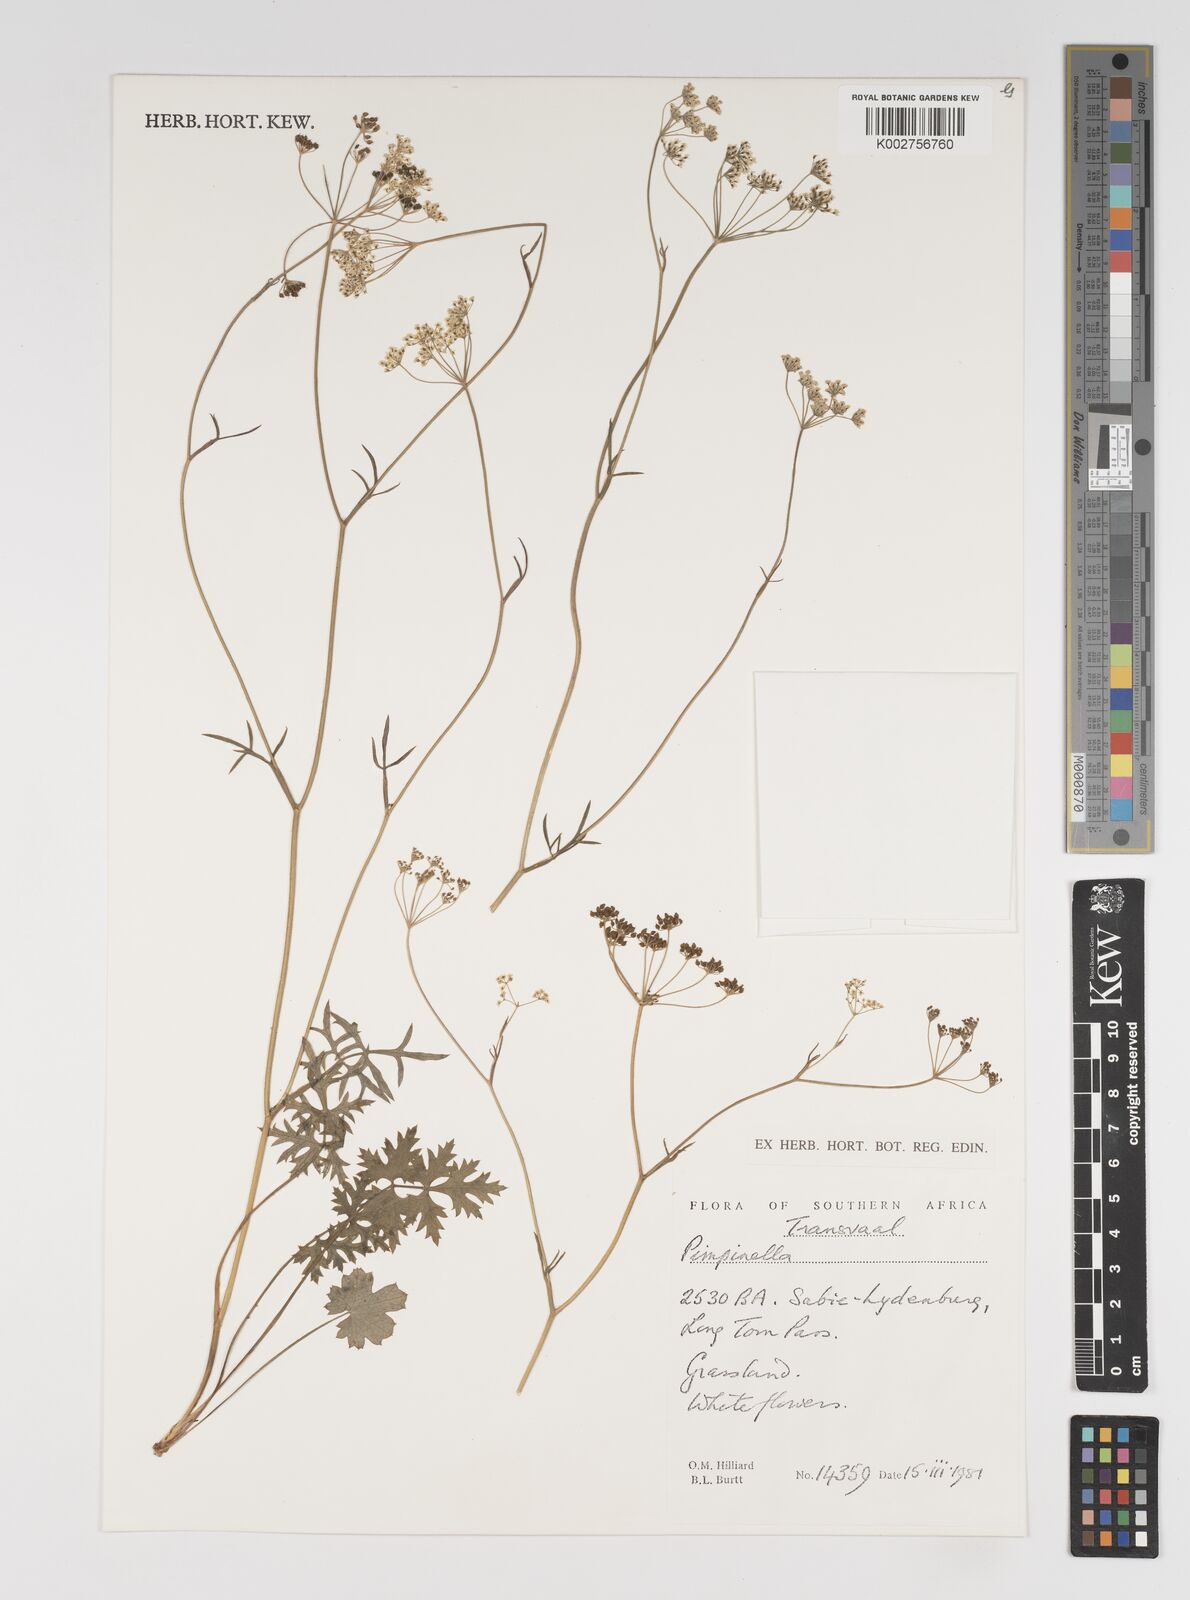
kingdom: Plantae
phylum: Tracheophyta
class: Magnoliopsida
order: Apiales
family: Apiaceae
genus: Pimpinella
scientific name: Pimpinella
